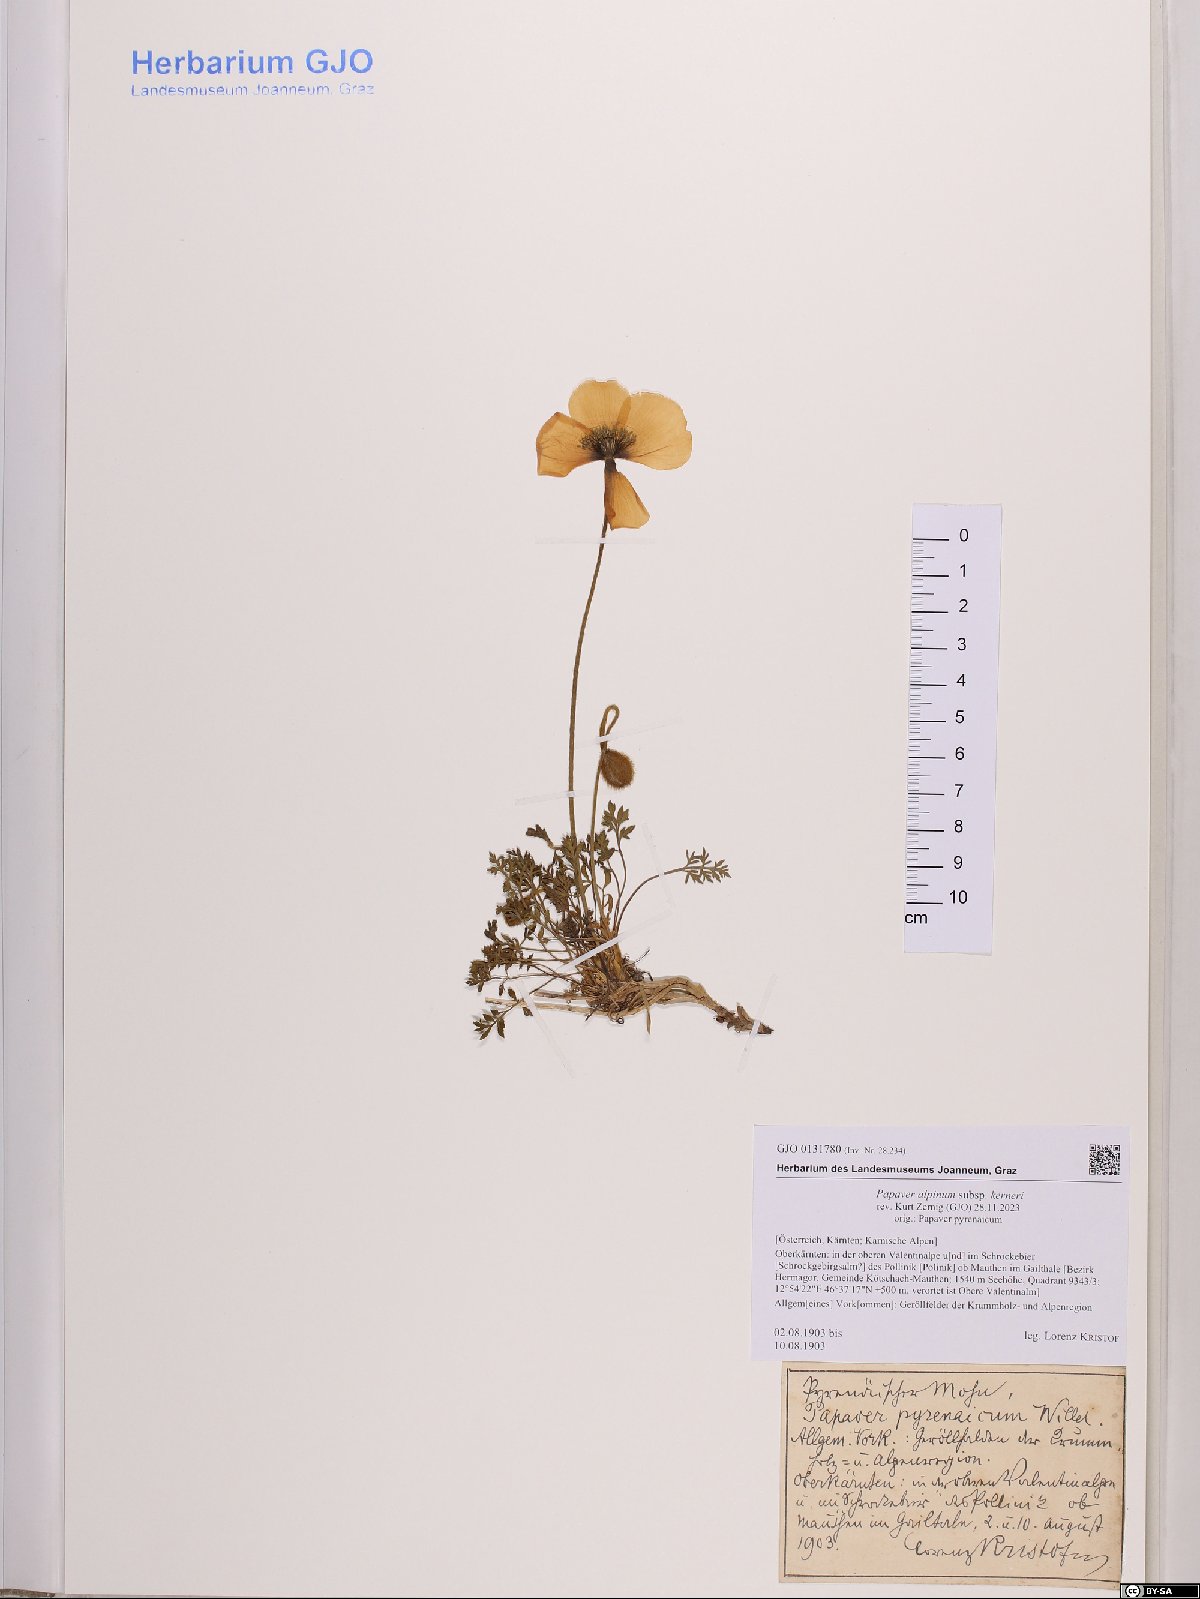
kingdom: Plantae
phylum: Tracheophyta
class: Magnoliopsida
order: Ranunculales
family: Papaveraceae
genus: Papaver
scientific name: Papaver alpinum
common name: Austrian poppy
